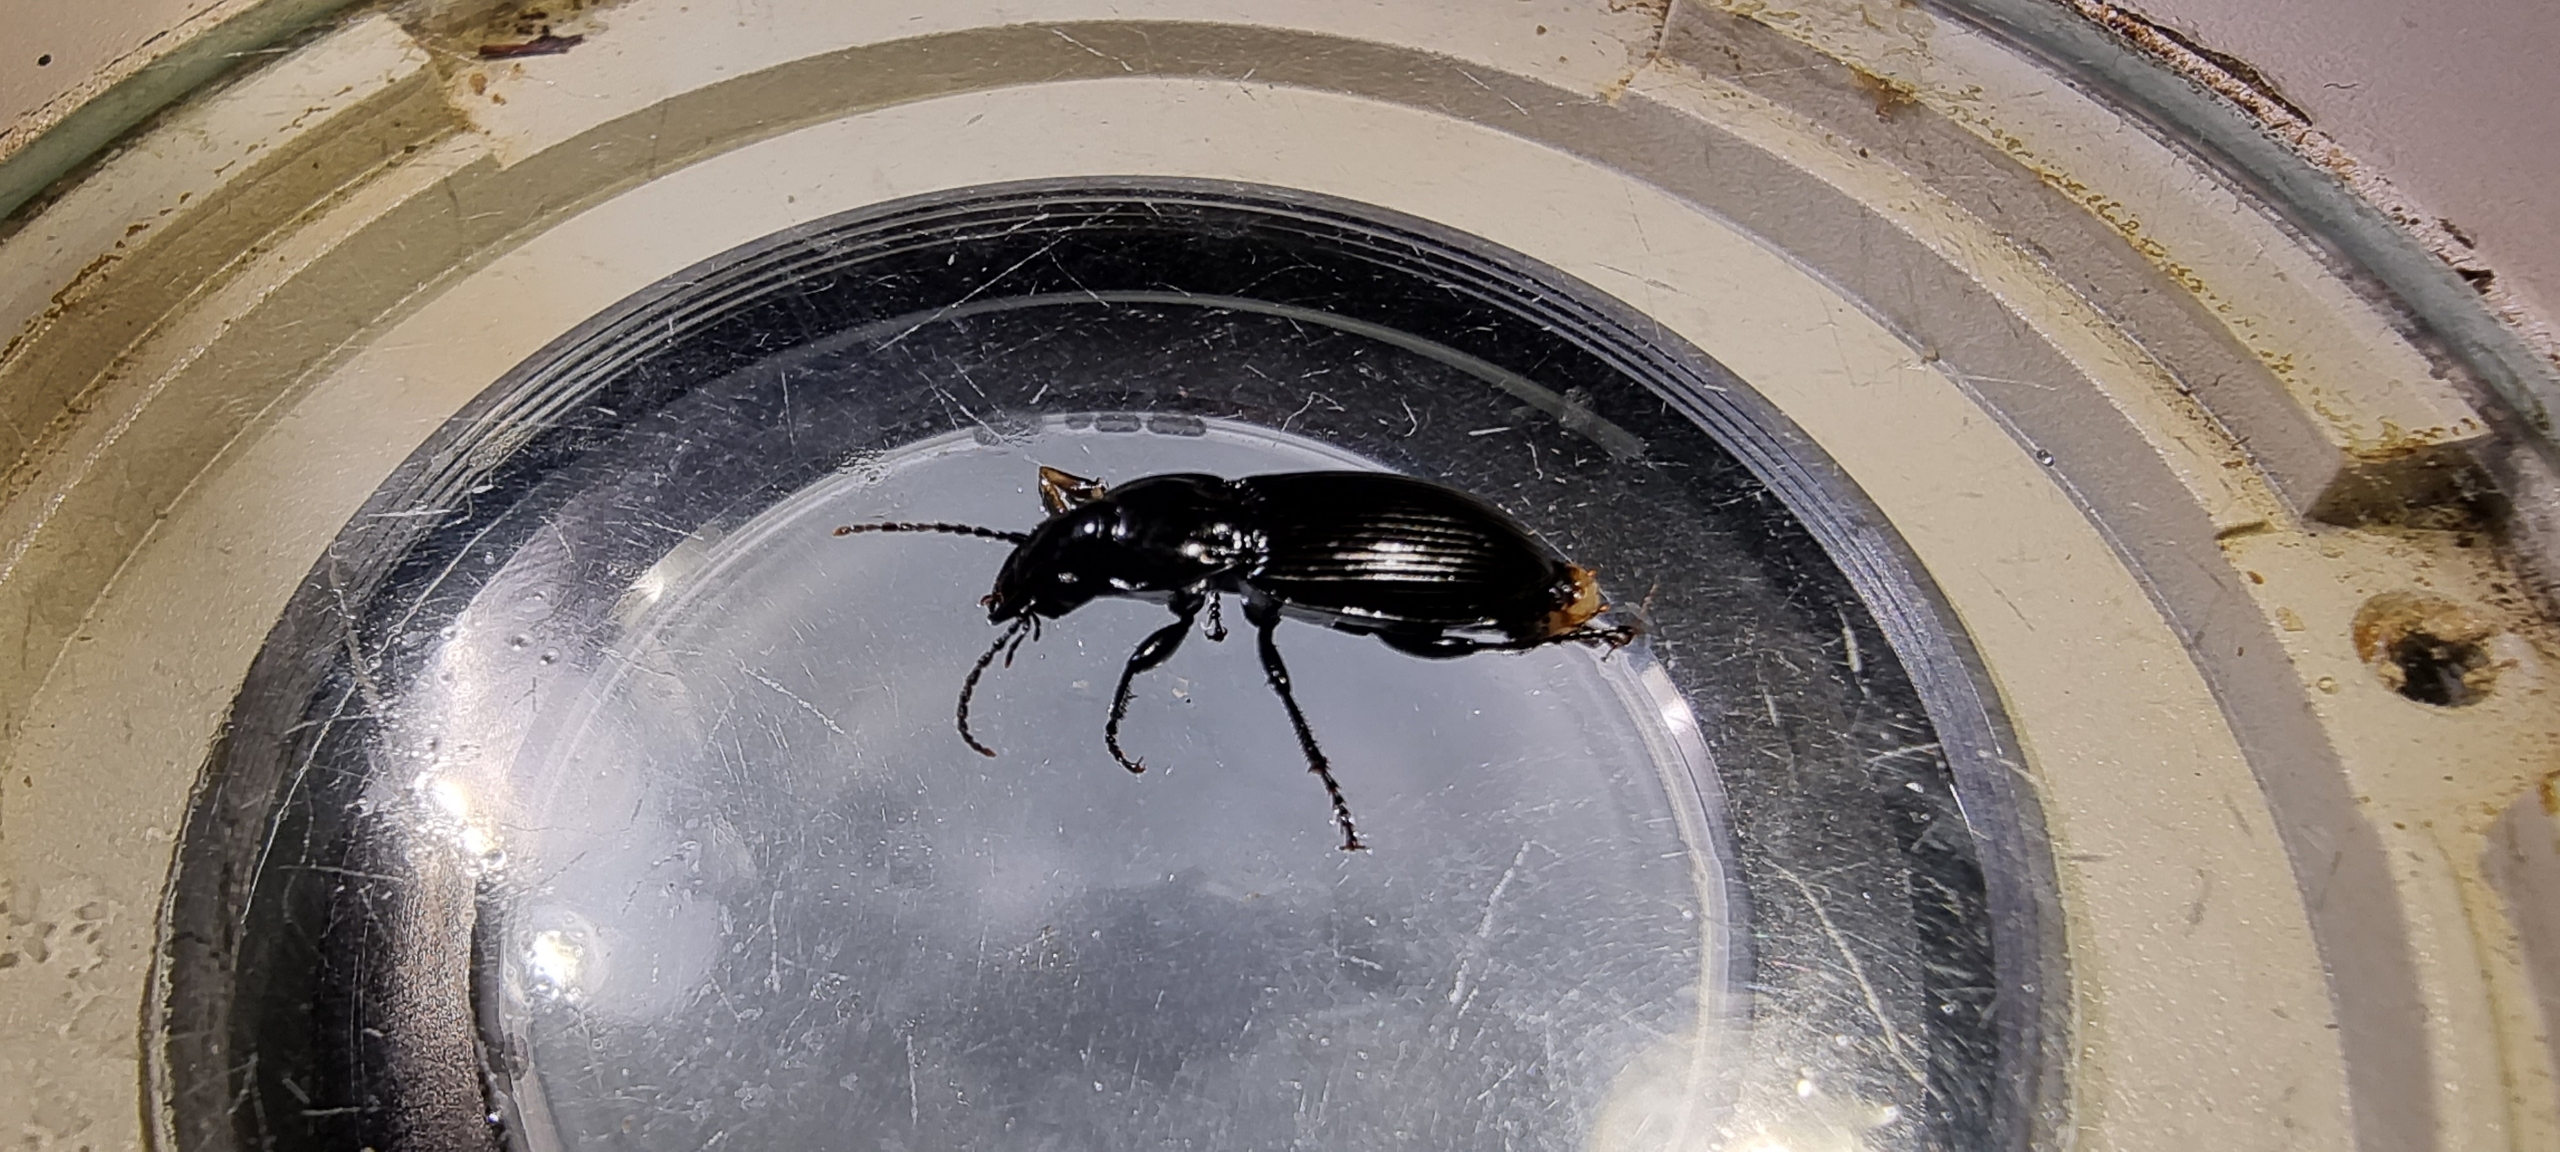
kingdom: Animalia
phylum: Arthropoda
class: Insecta
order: Coleoptera
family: Carabidae
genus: Pterostichus
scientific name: Pterostichus niger
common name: Skovjordløber
